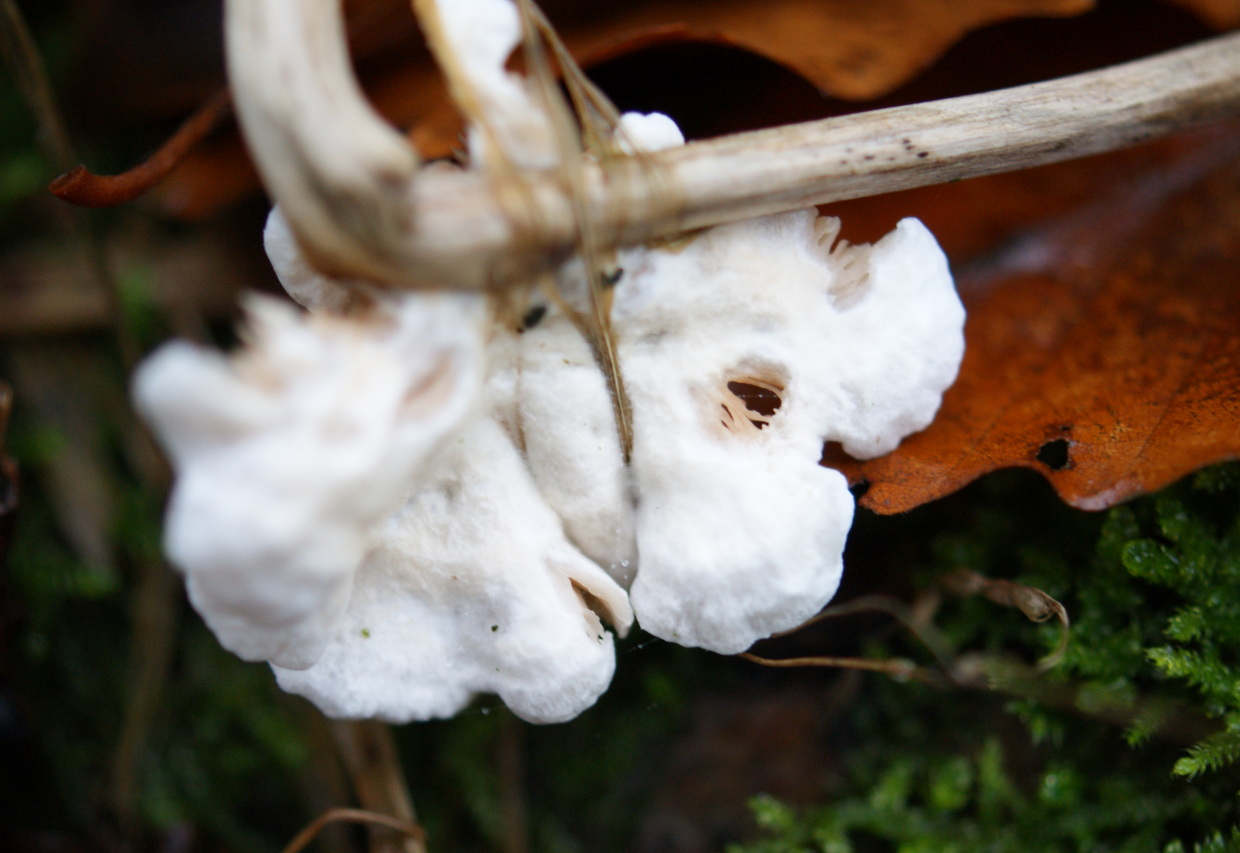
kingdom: Fungi
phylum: Basidiomycota
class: Agaricomycetes
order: Agaricales
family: Crepidotaceae
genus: Crepidotus
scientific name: Crepidotus variabilis
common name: forskelligformet muslingesvamp
